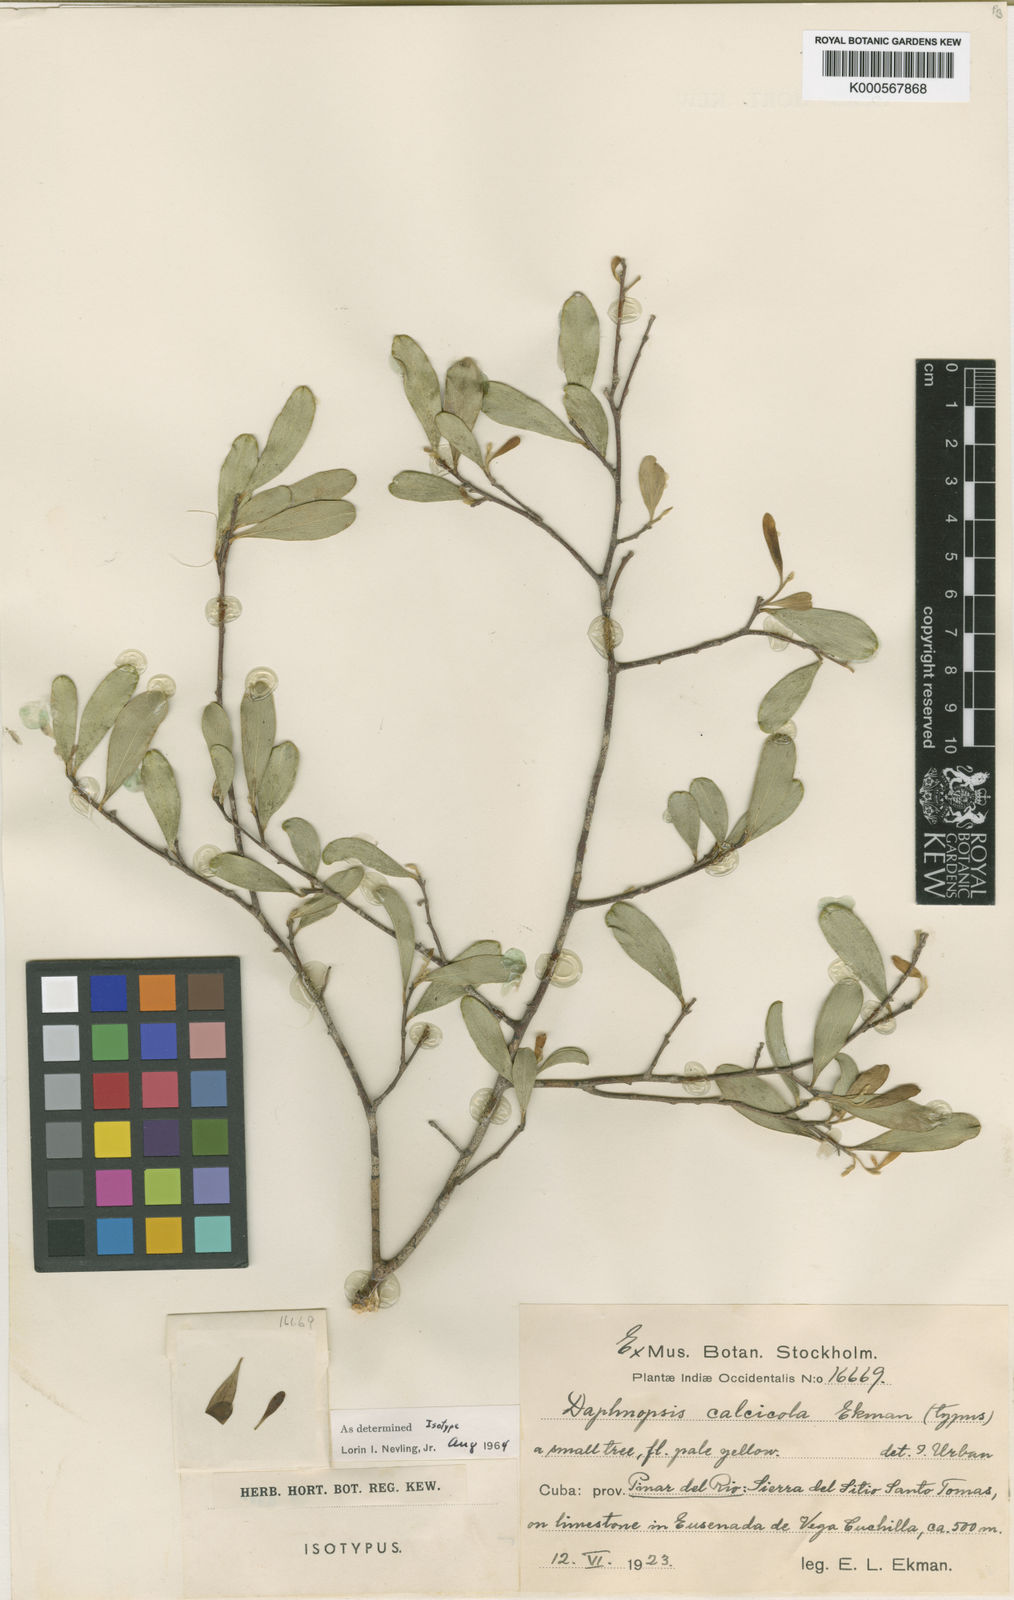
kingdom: Plantae
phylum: Tracheophyta
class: Magnoliopsida
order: Malvales
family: Thymelaeaceae
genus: Daphnopsis
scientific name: Daphnopsis calcicola
